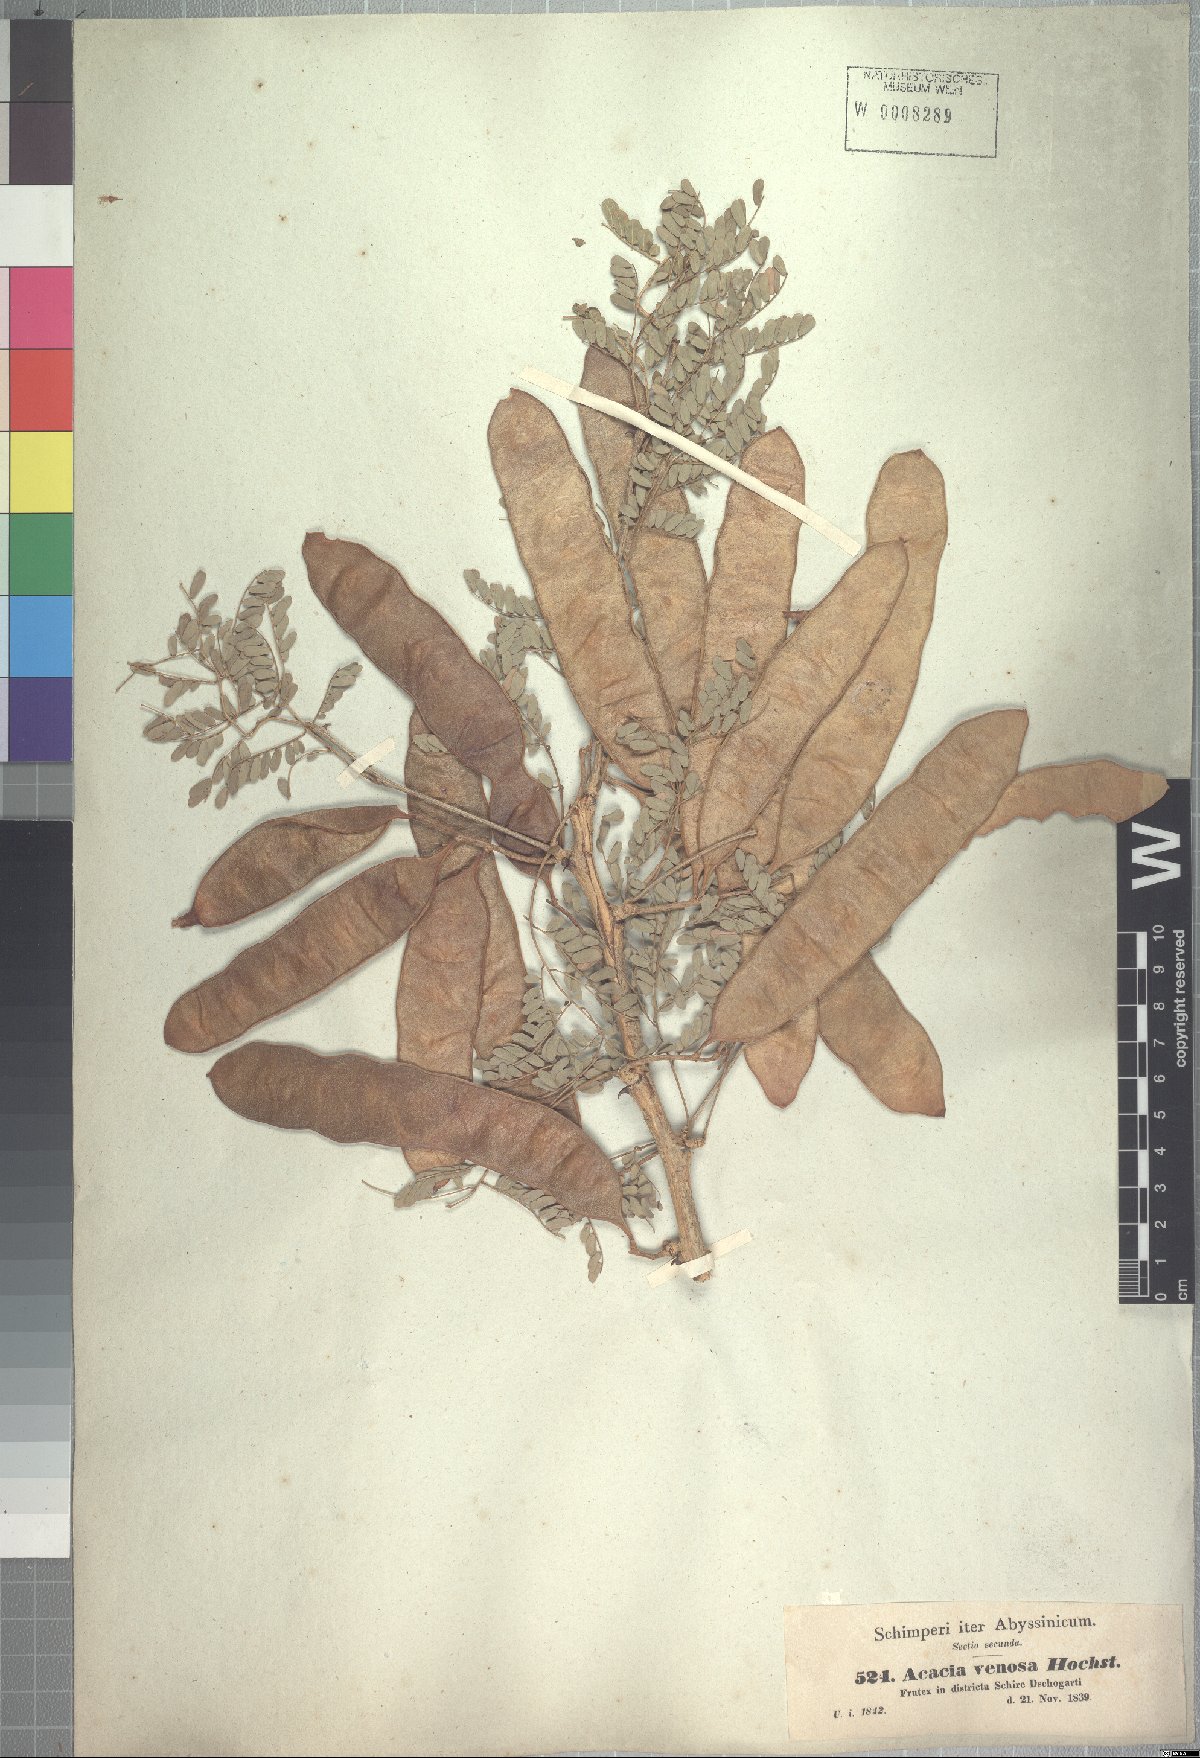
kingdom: Plantae
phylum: Tracheophyta
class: Magnoliopsida
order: Fabales
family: Fabaceae
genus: Senegalia
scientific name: Senegalia venosa
